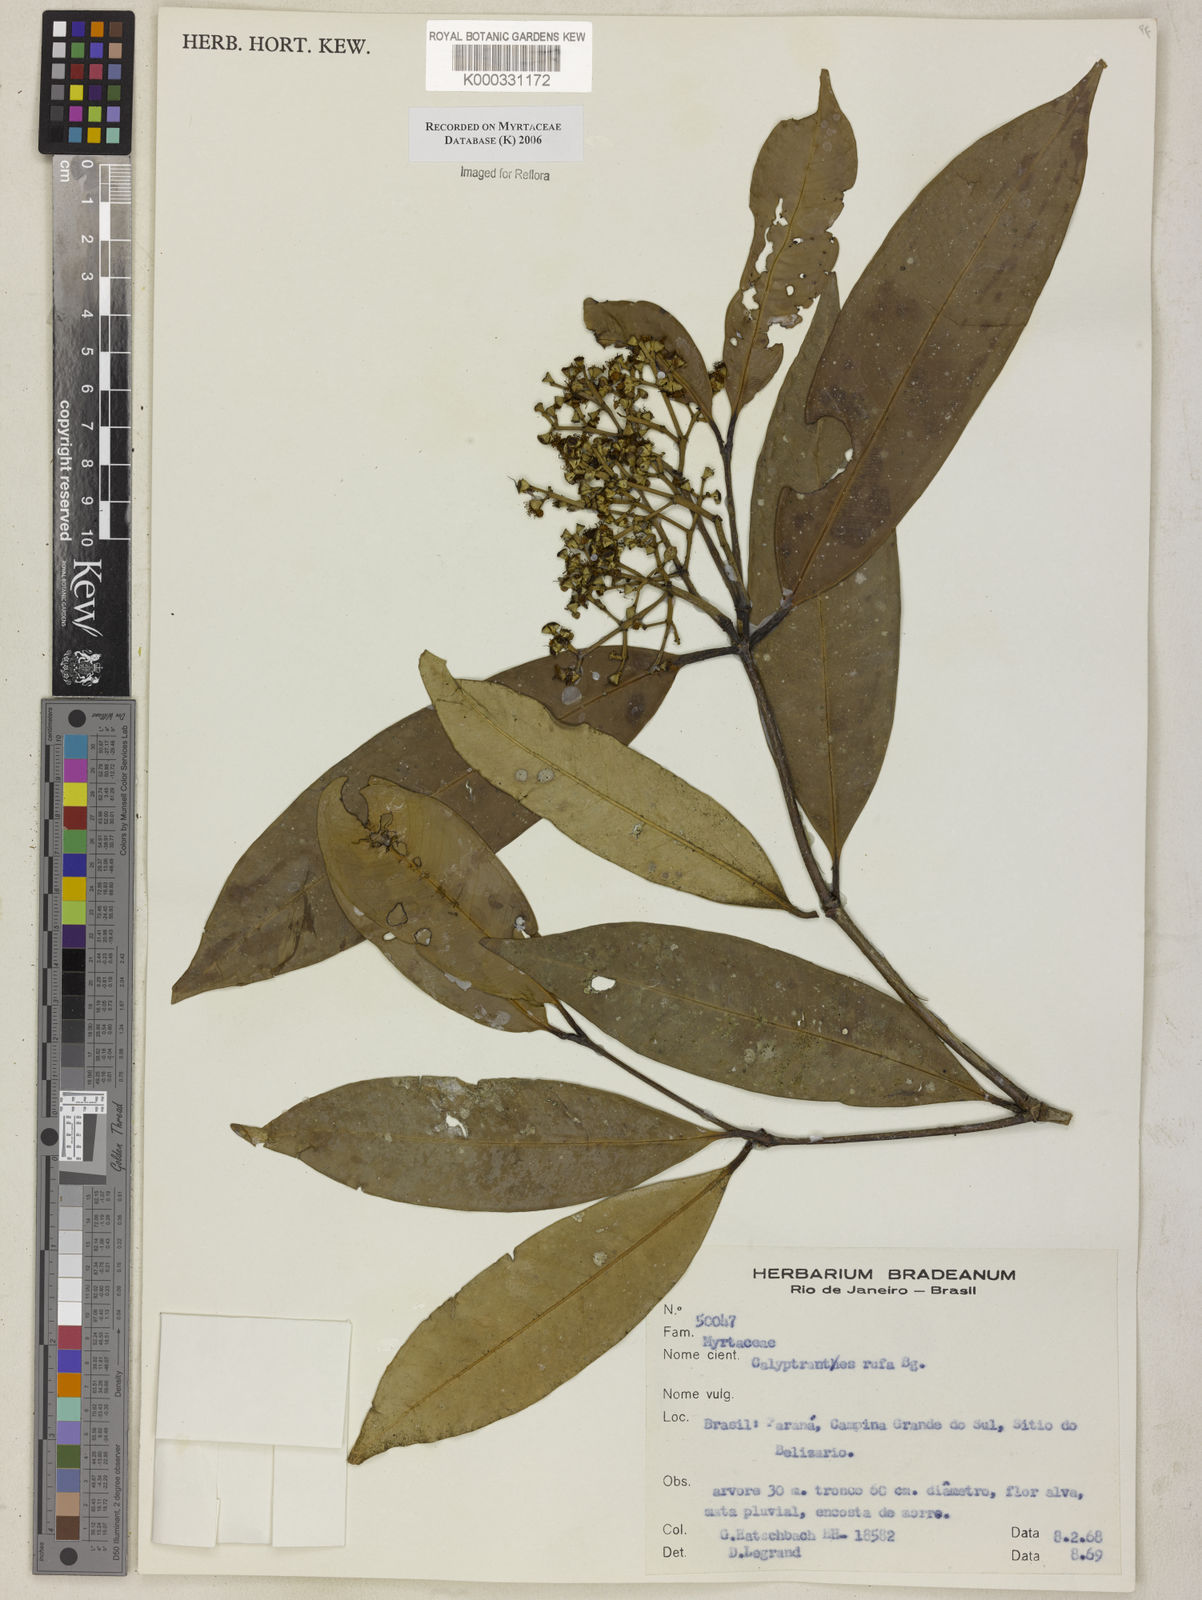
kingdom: Plantae
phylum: Tracheophyta
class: Magnoliopsida
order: Myrtales
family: Myrtaceae
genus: Calyptranthes
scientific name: Calyptranthes grandifolia
